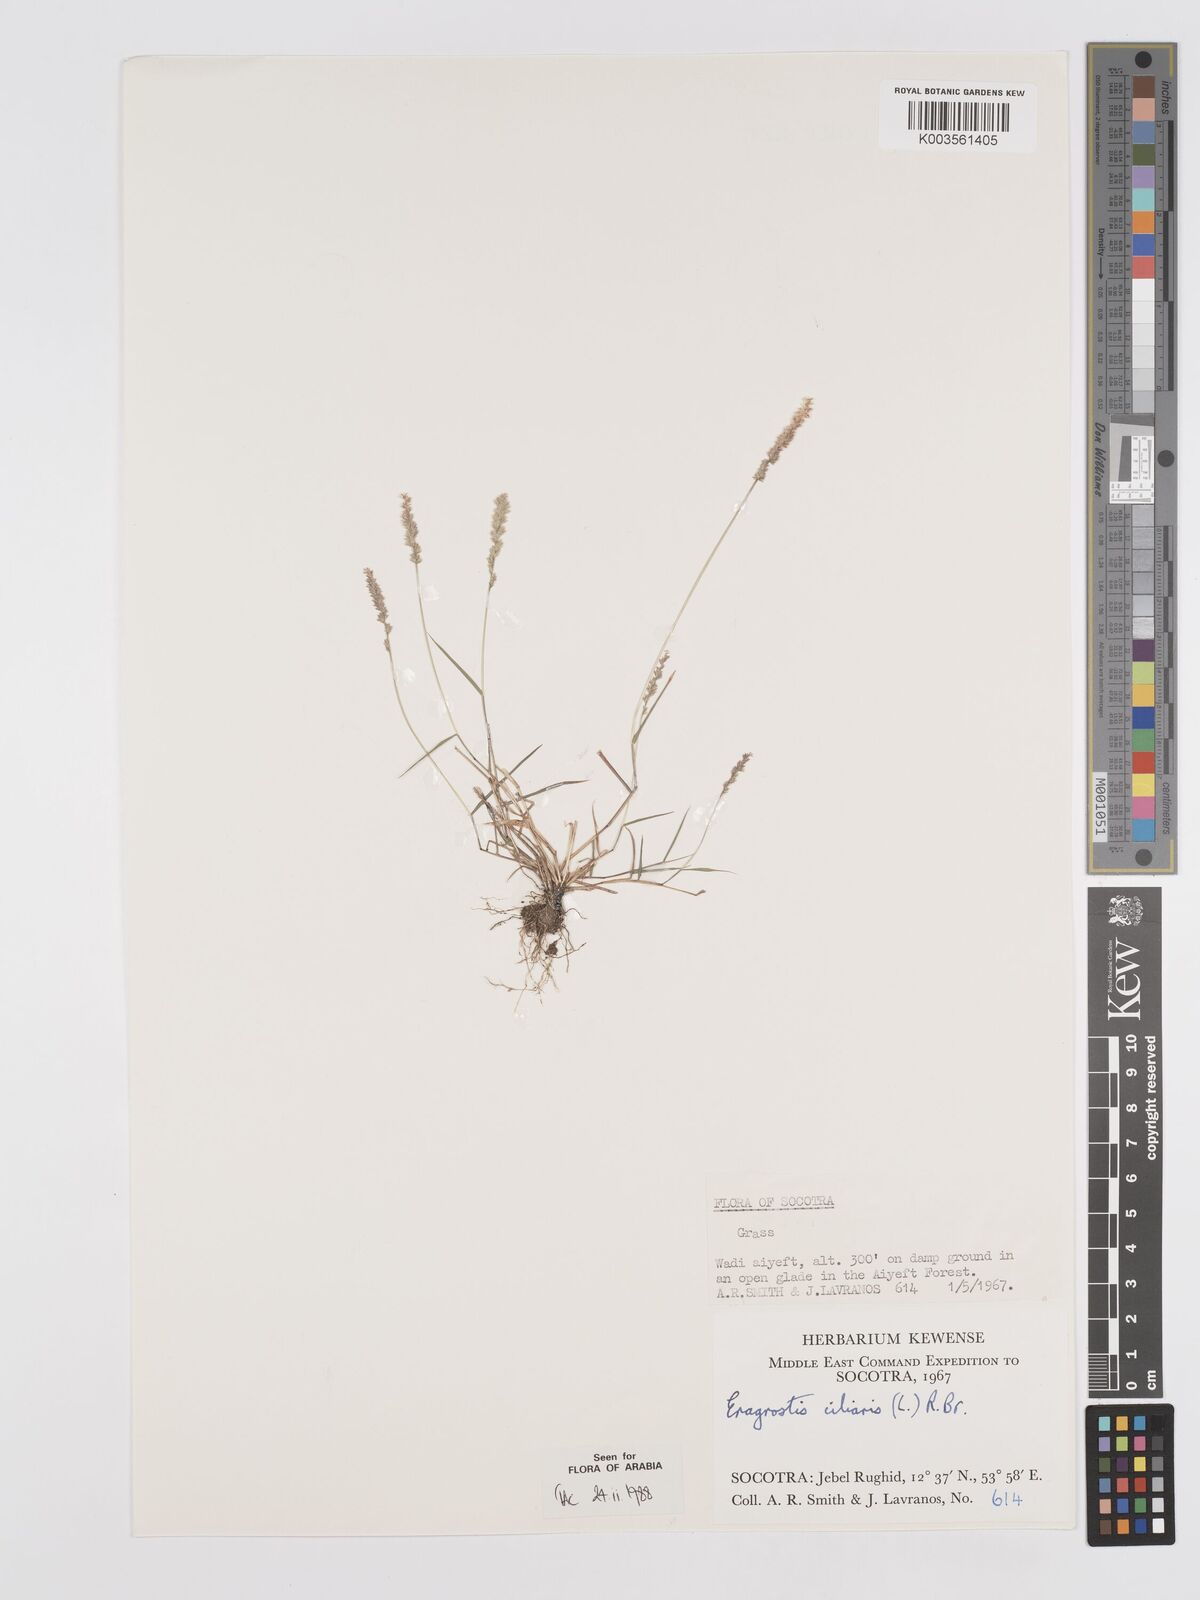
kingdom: Plantae
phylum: Tracheophyta
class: Liliopsida
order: Poales
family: Poaceae
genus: Eragrostis
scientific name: Eragrostis ciliaris
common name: Gophertail lovegrass
